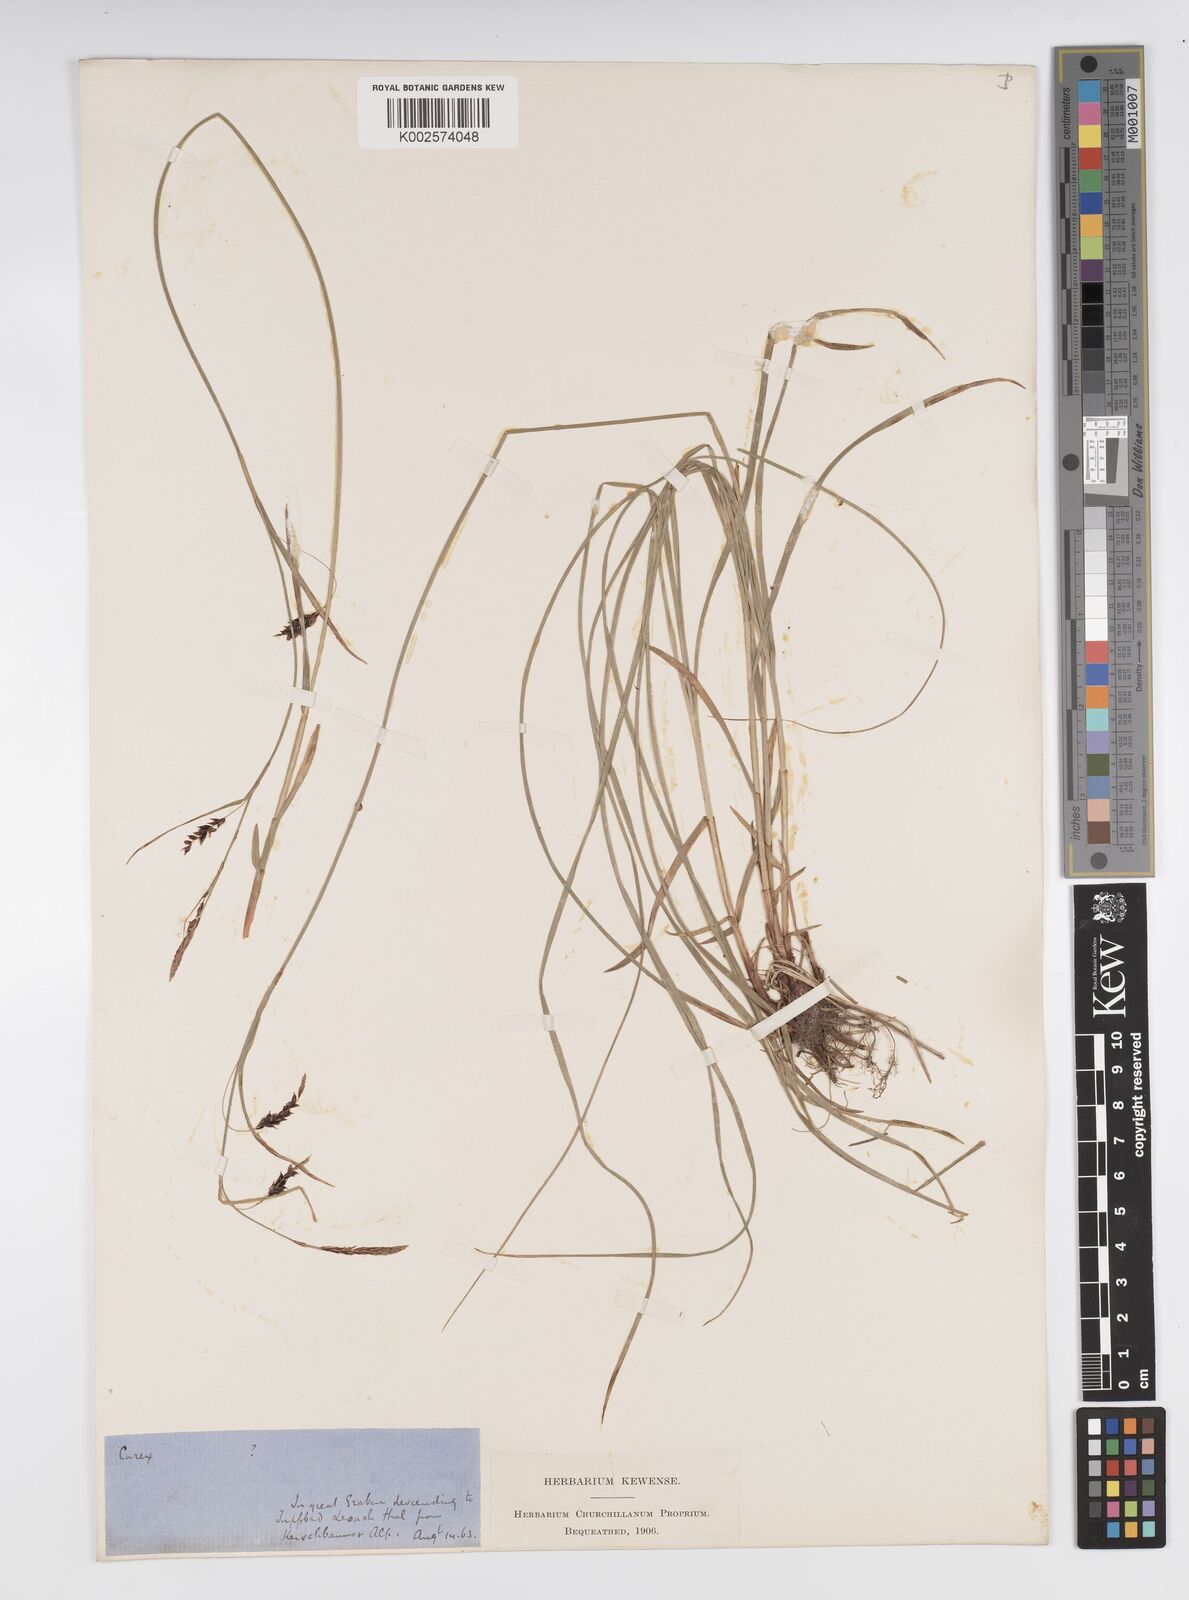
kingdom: Plantae
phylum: Tracheophyta
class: Liliopsida
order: Poales
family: Cyperaceae
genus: Carex
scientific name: Carex brachystachys
